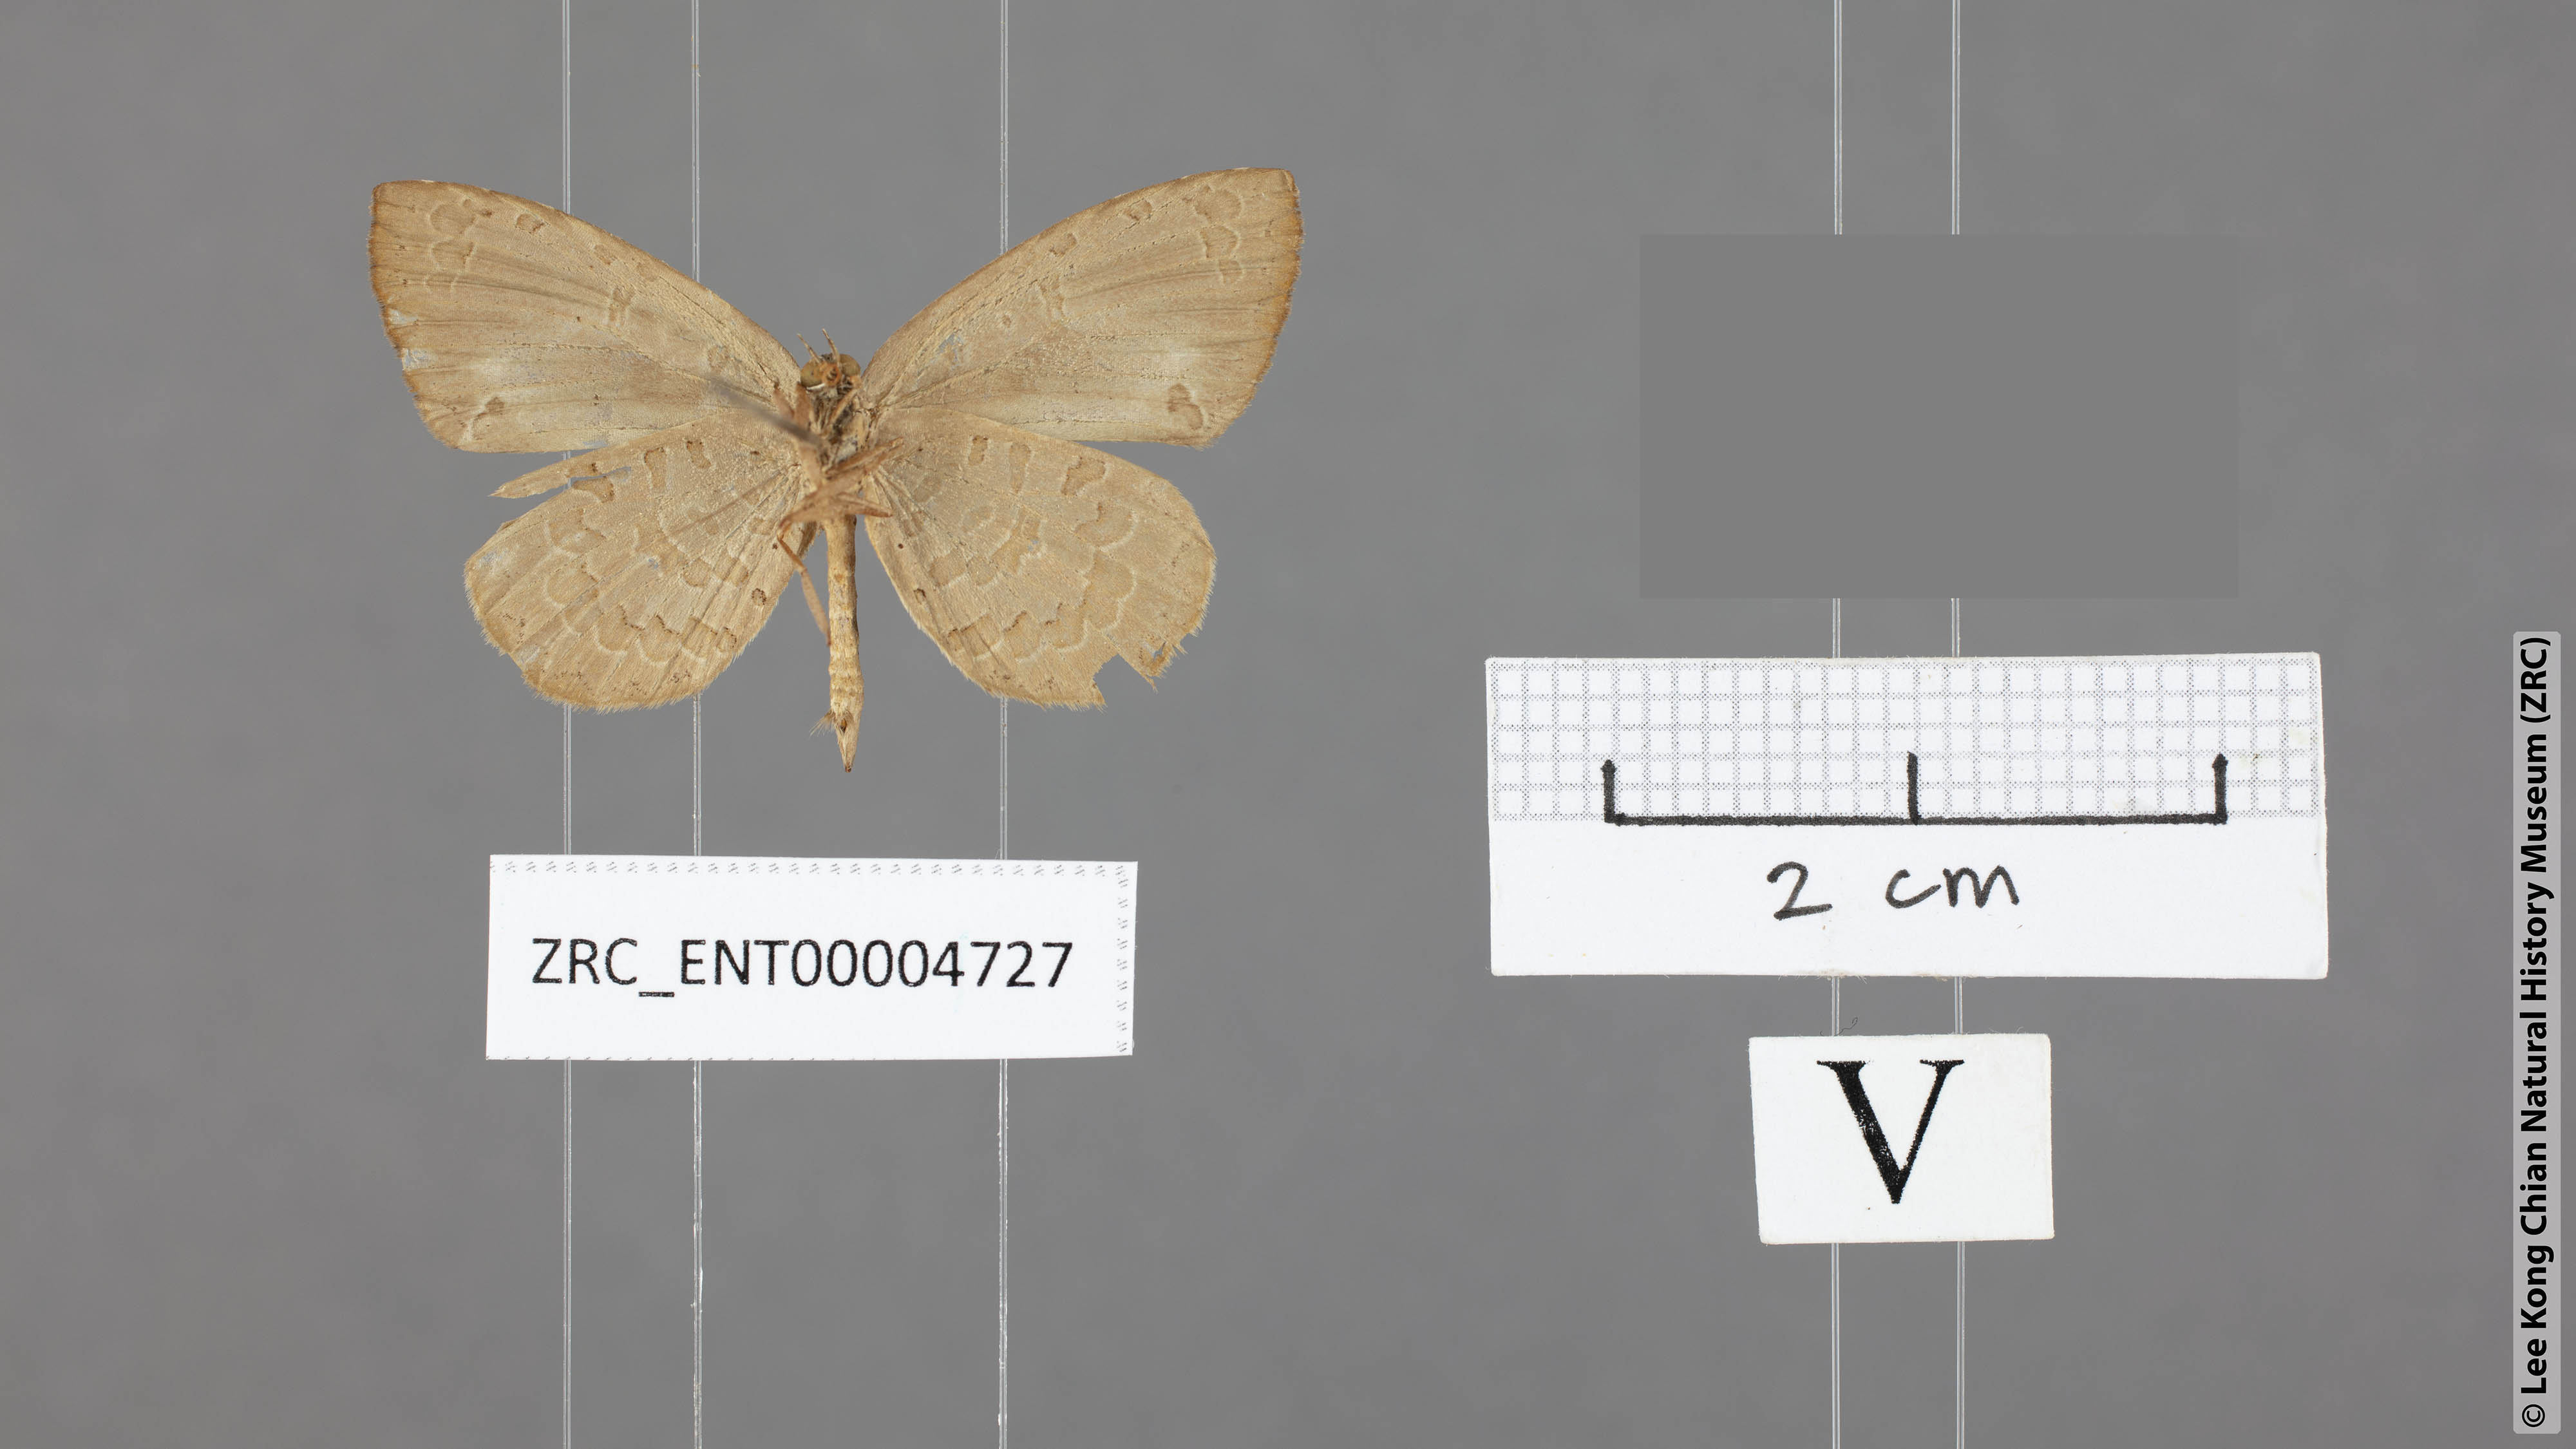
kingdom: Animalia
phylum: Arthropoda
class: Insecta
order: Lepidoptera
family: Lycaenidae
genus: Miletus
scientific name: Miletus chinensis
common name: Common brownie
